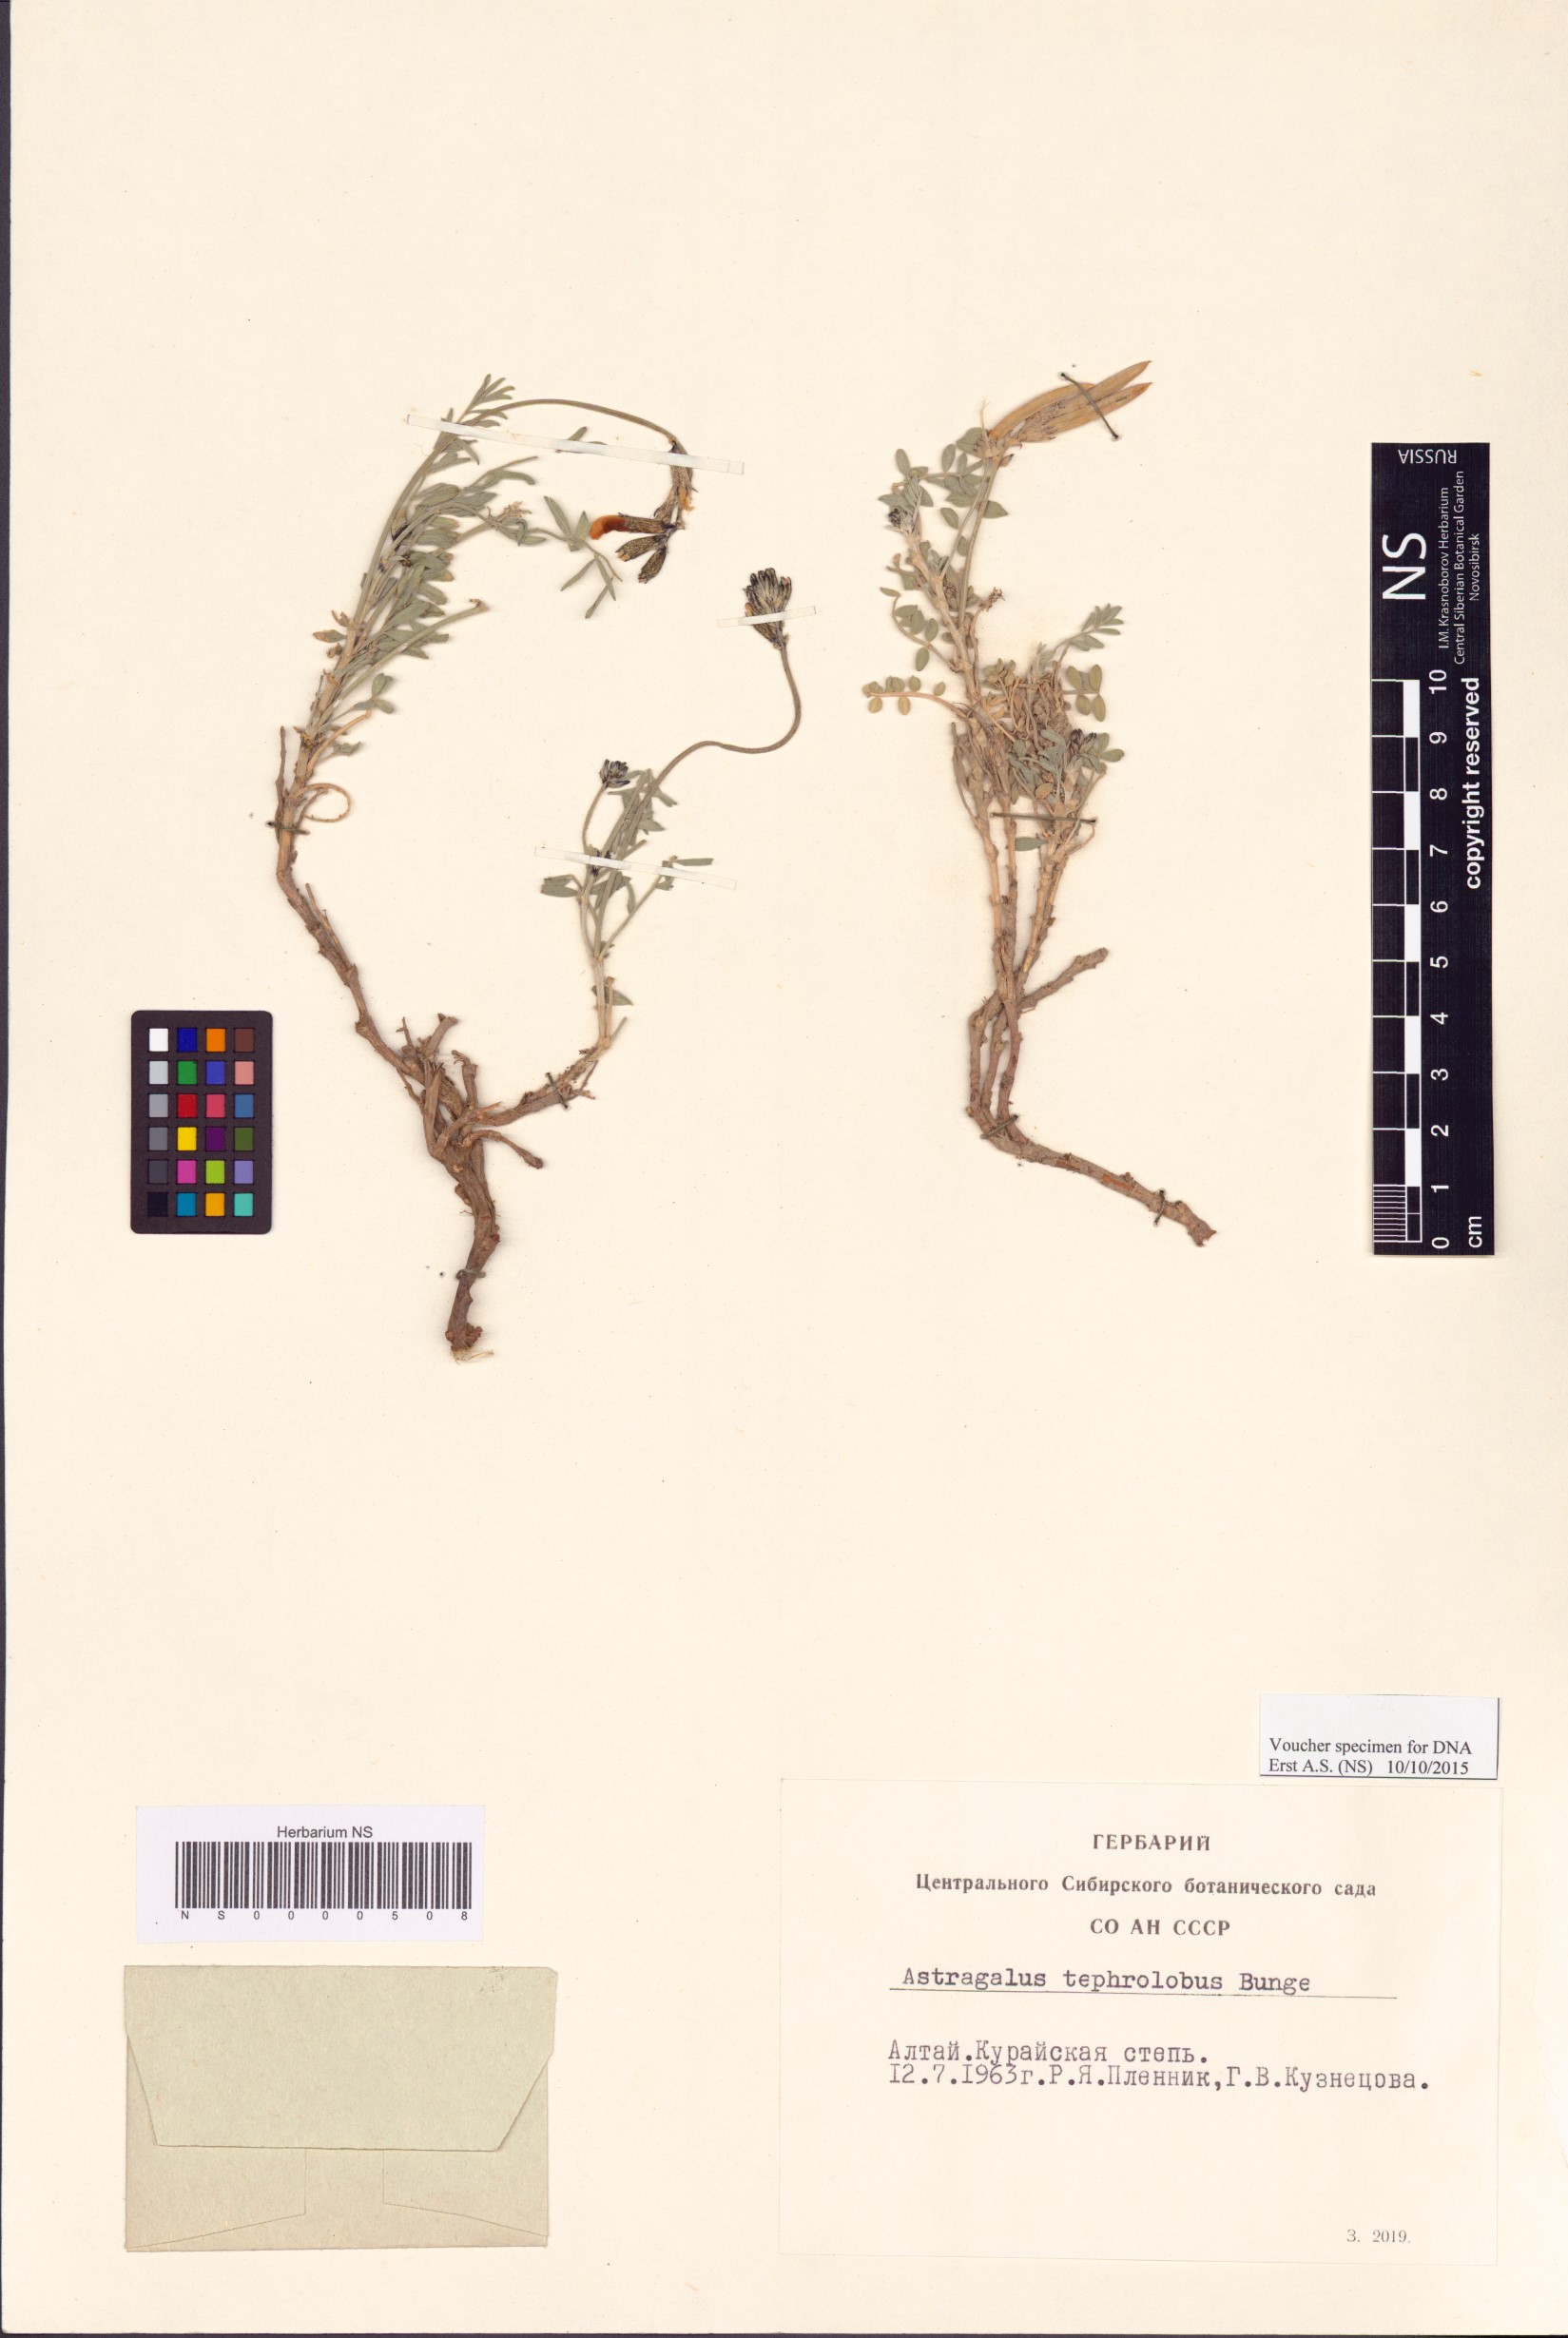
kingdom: Plantae
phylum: Tracheophyta
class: Magnoliopsida
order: Fabales
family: Fabaceae
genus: Astragalus
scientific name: Astragalus tephrolobus
